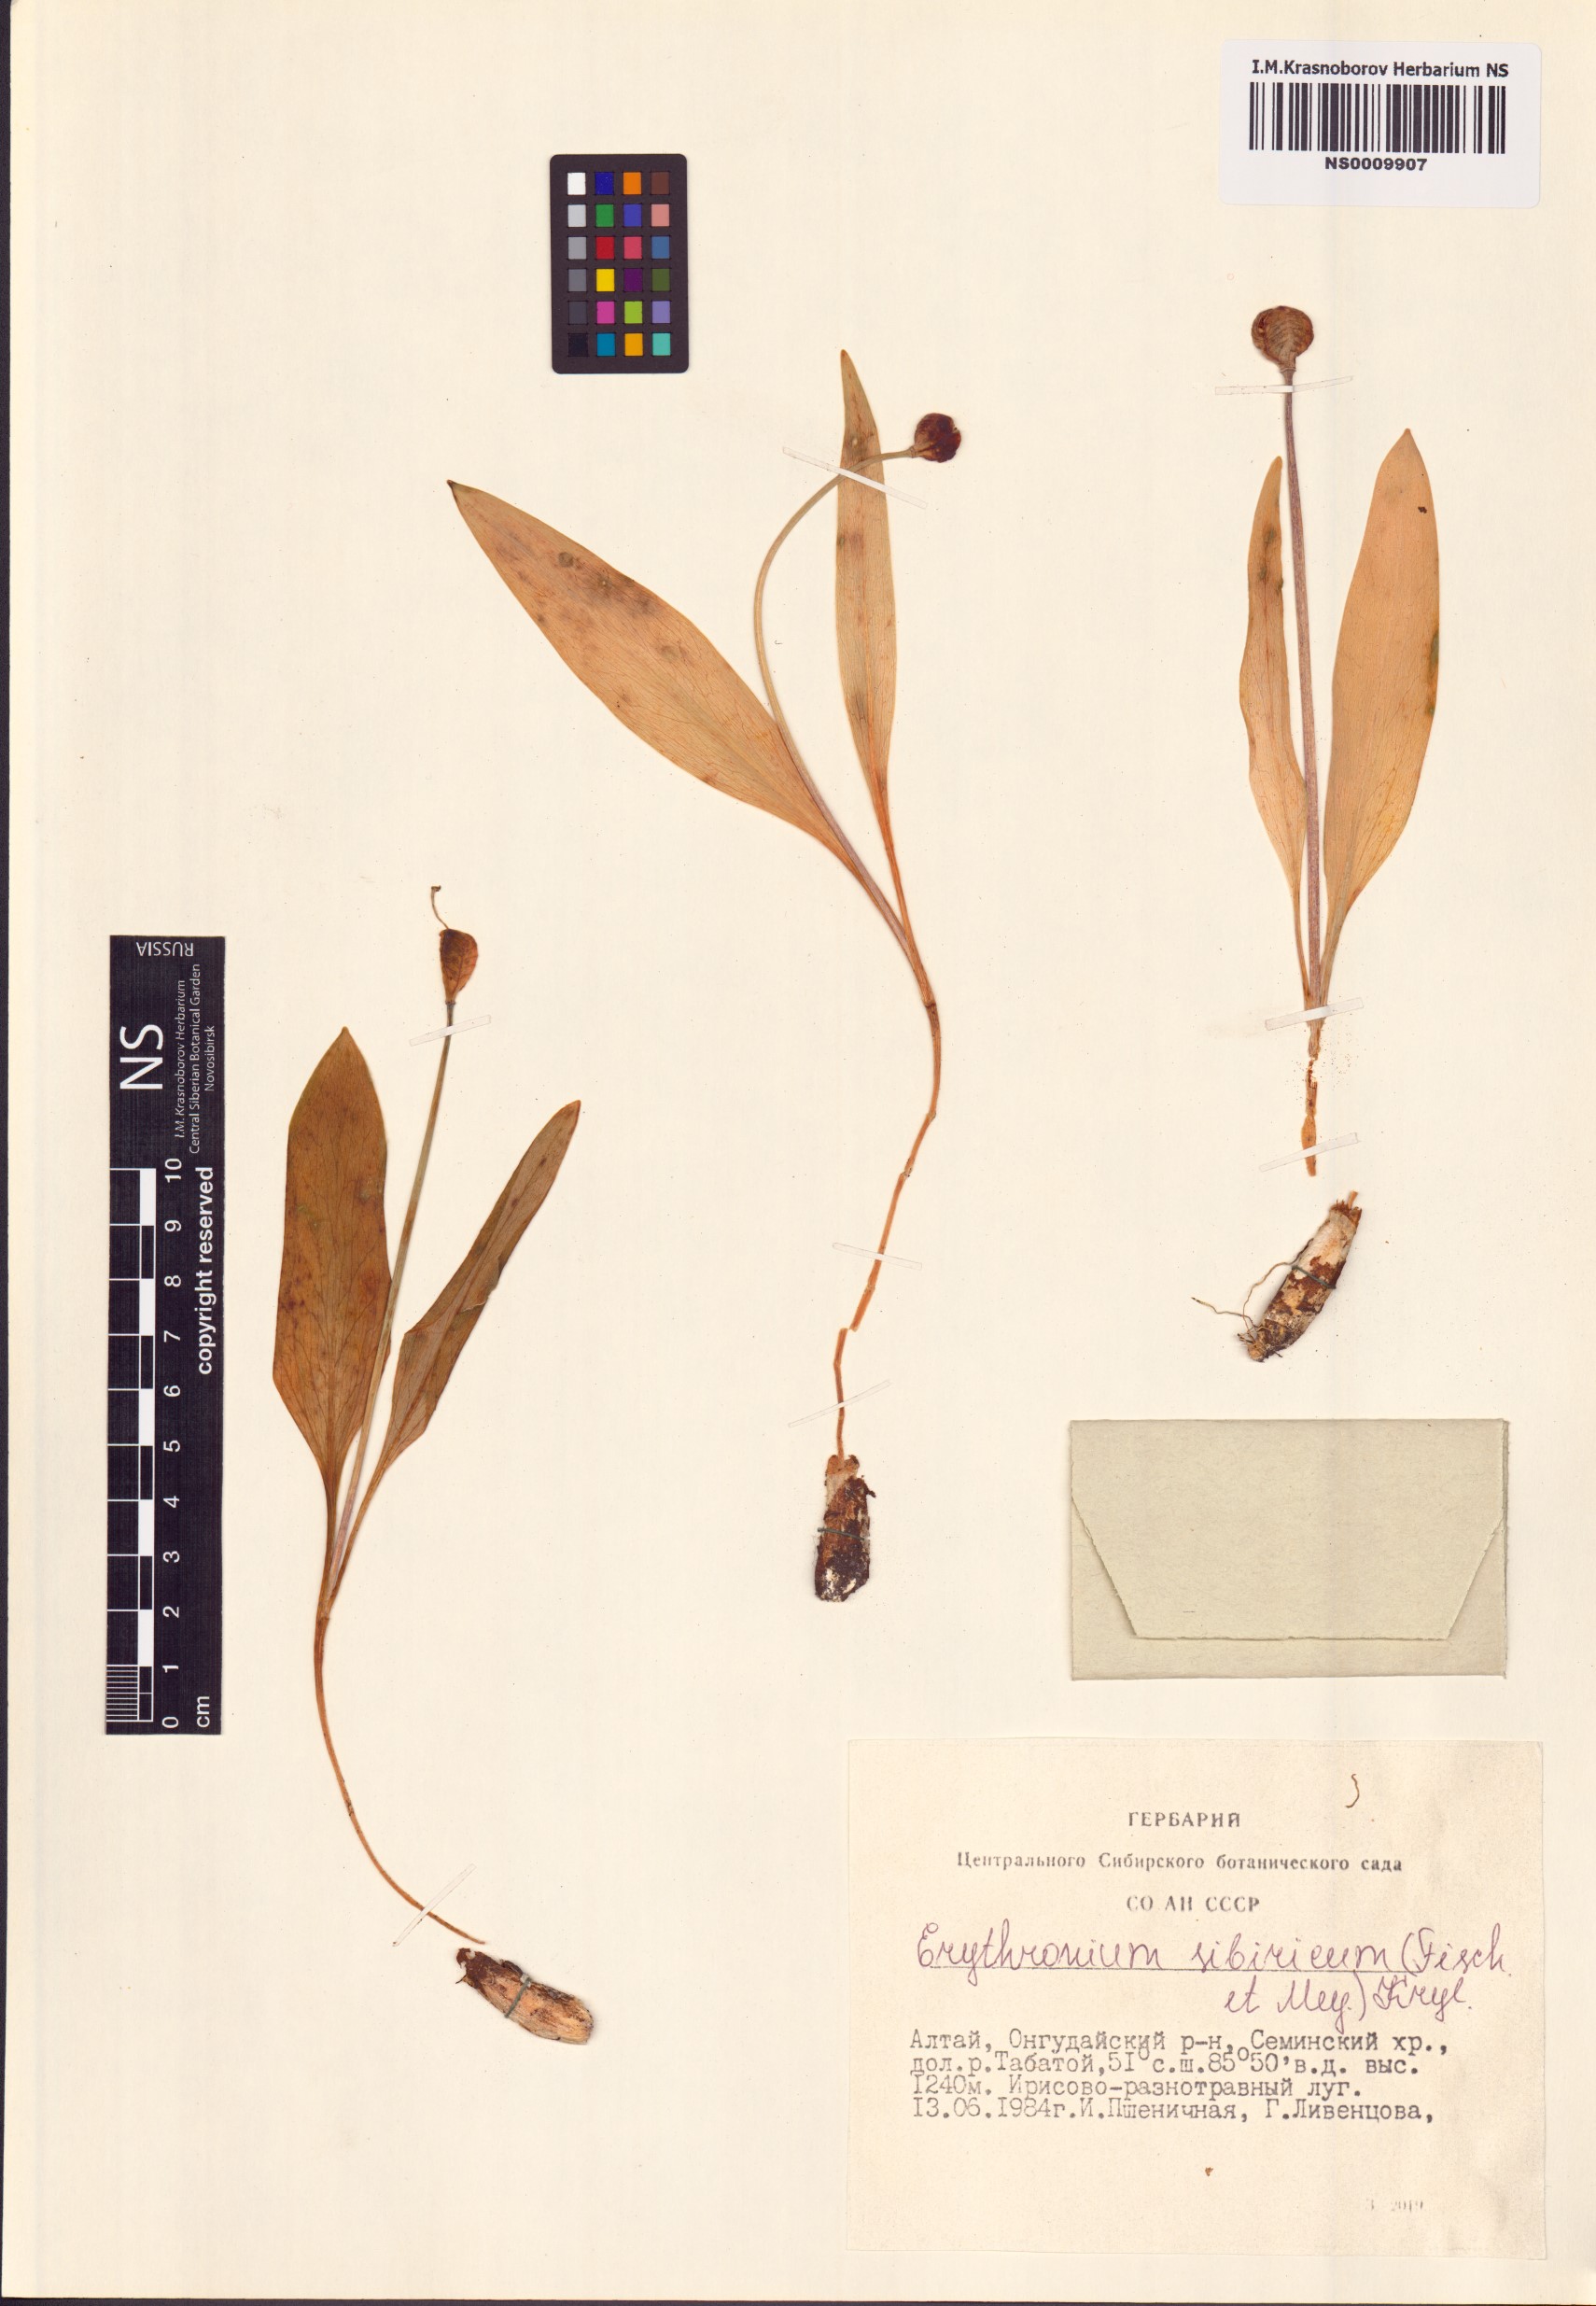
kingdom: Plantae
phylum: Tracheophyta
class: Liliopsida
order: Liliales
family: Liliaceae
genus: Erythronium
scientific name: Erythronium sibiricum
